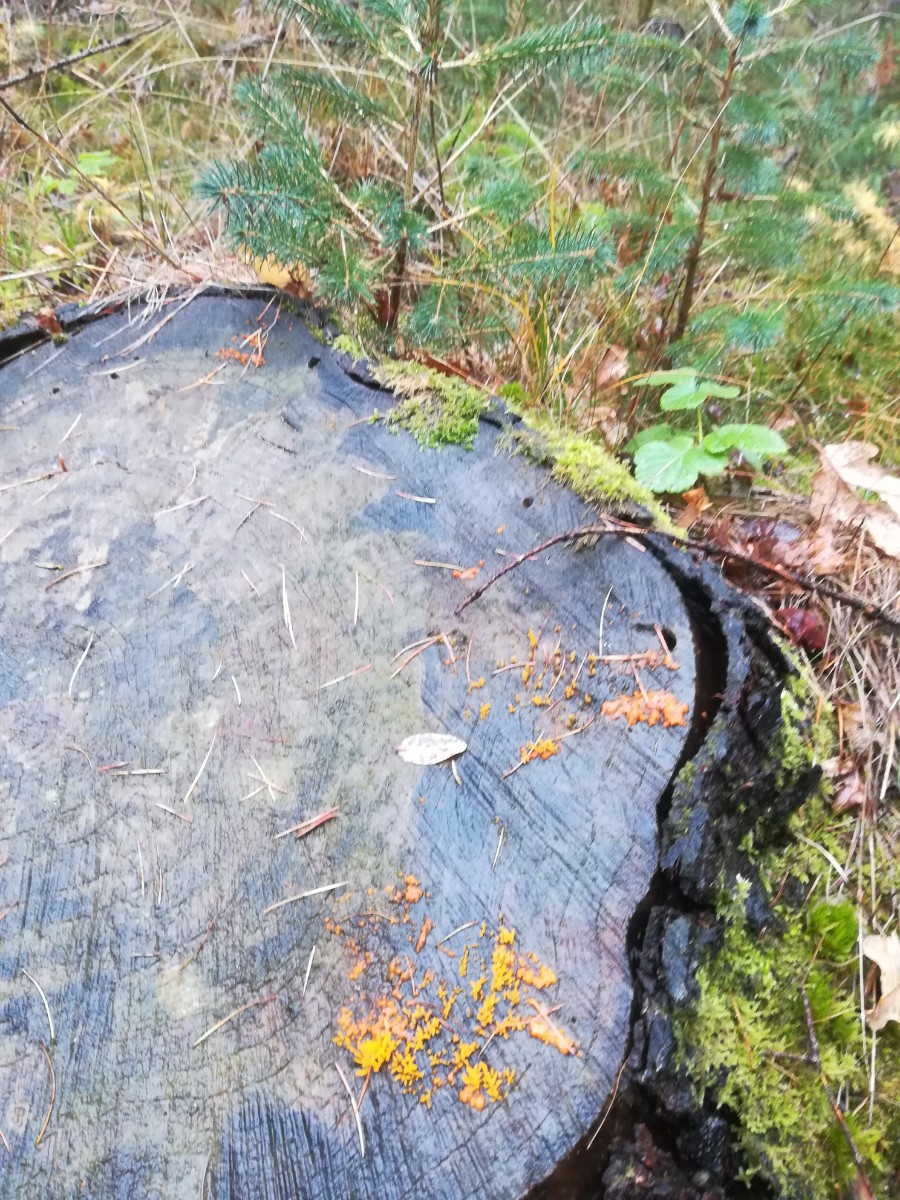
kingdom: Fungi
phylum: Basidiomycota
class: Dacrymycetes
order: Dacrymycetales
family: Dacrymycetaceae
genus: Dacrymyces
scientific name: Dacrymyces stillatus
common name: almindelig tåresvamp
